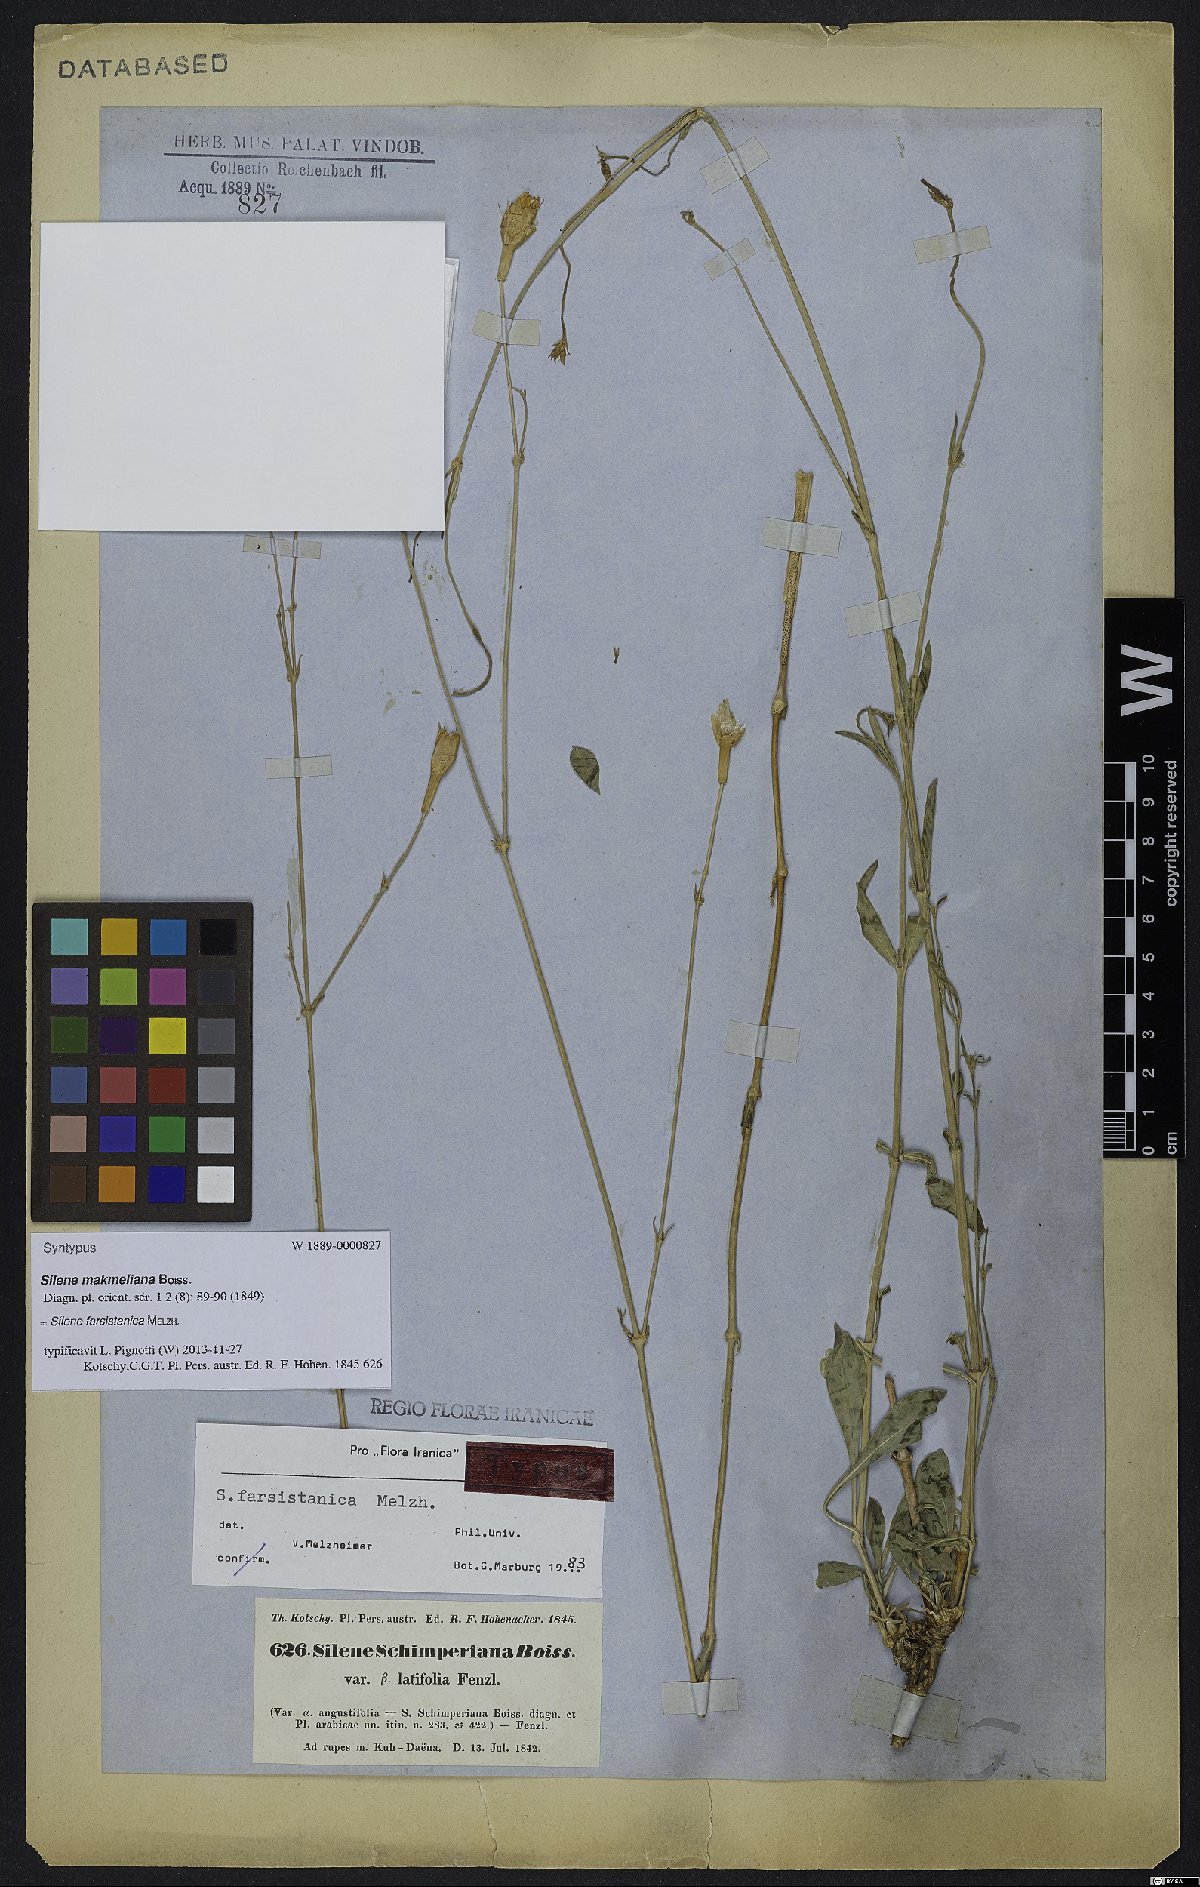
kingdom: Plantae
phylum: Tracheophyta
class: Magnoliopsida
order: Caryophyllales
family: Caryophyllaceae
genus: Silene
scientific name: Silene farsistanica
